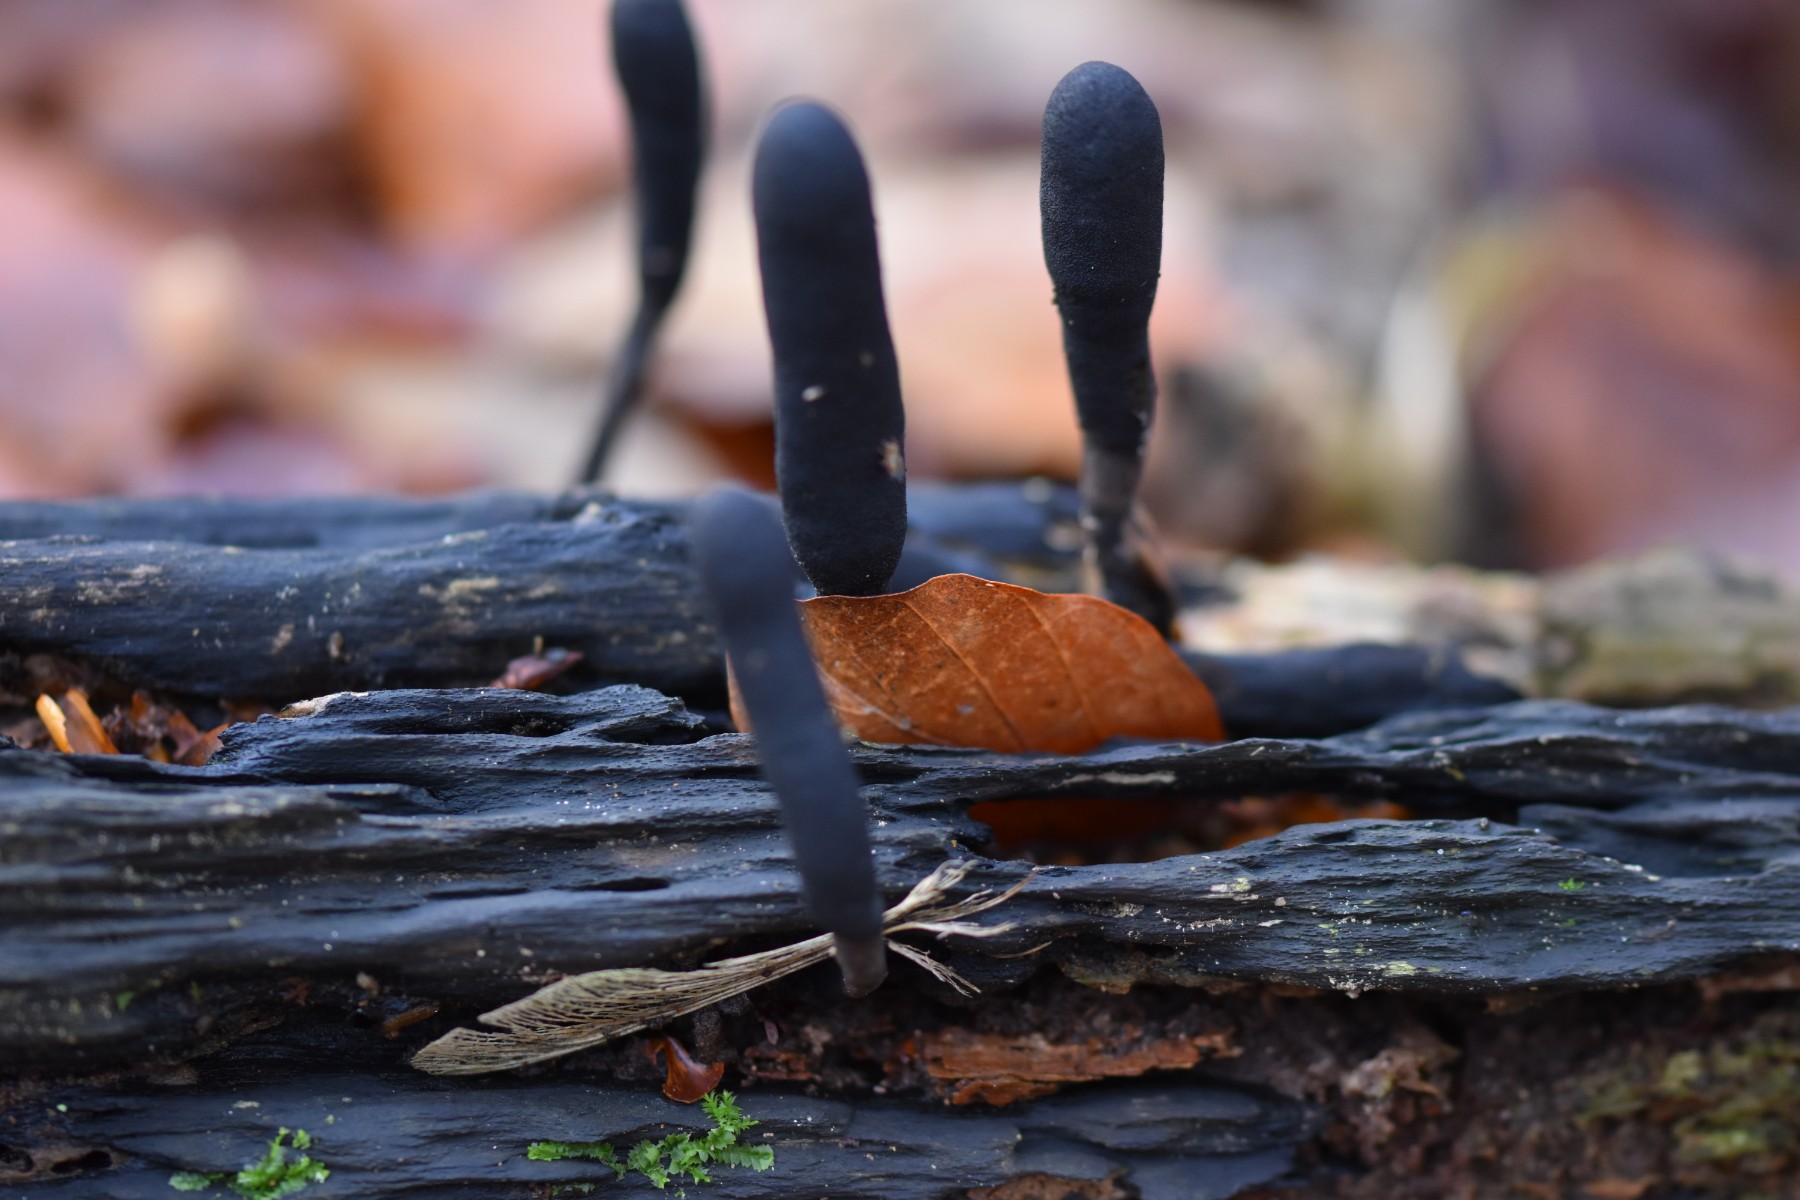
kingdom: Fungi
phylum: Ascomycota
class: Sordariomycetes
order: Xylariales
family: Xylariaceae
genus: Xylaria
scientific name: Xylaria longipes
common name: slank stødsvamp
